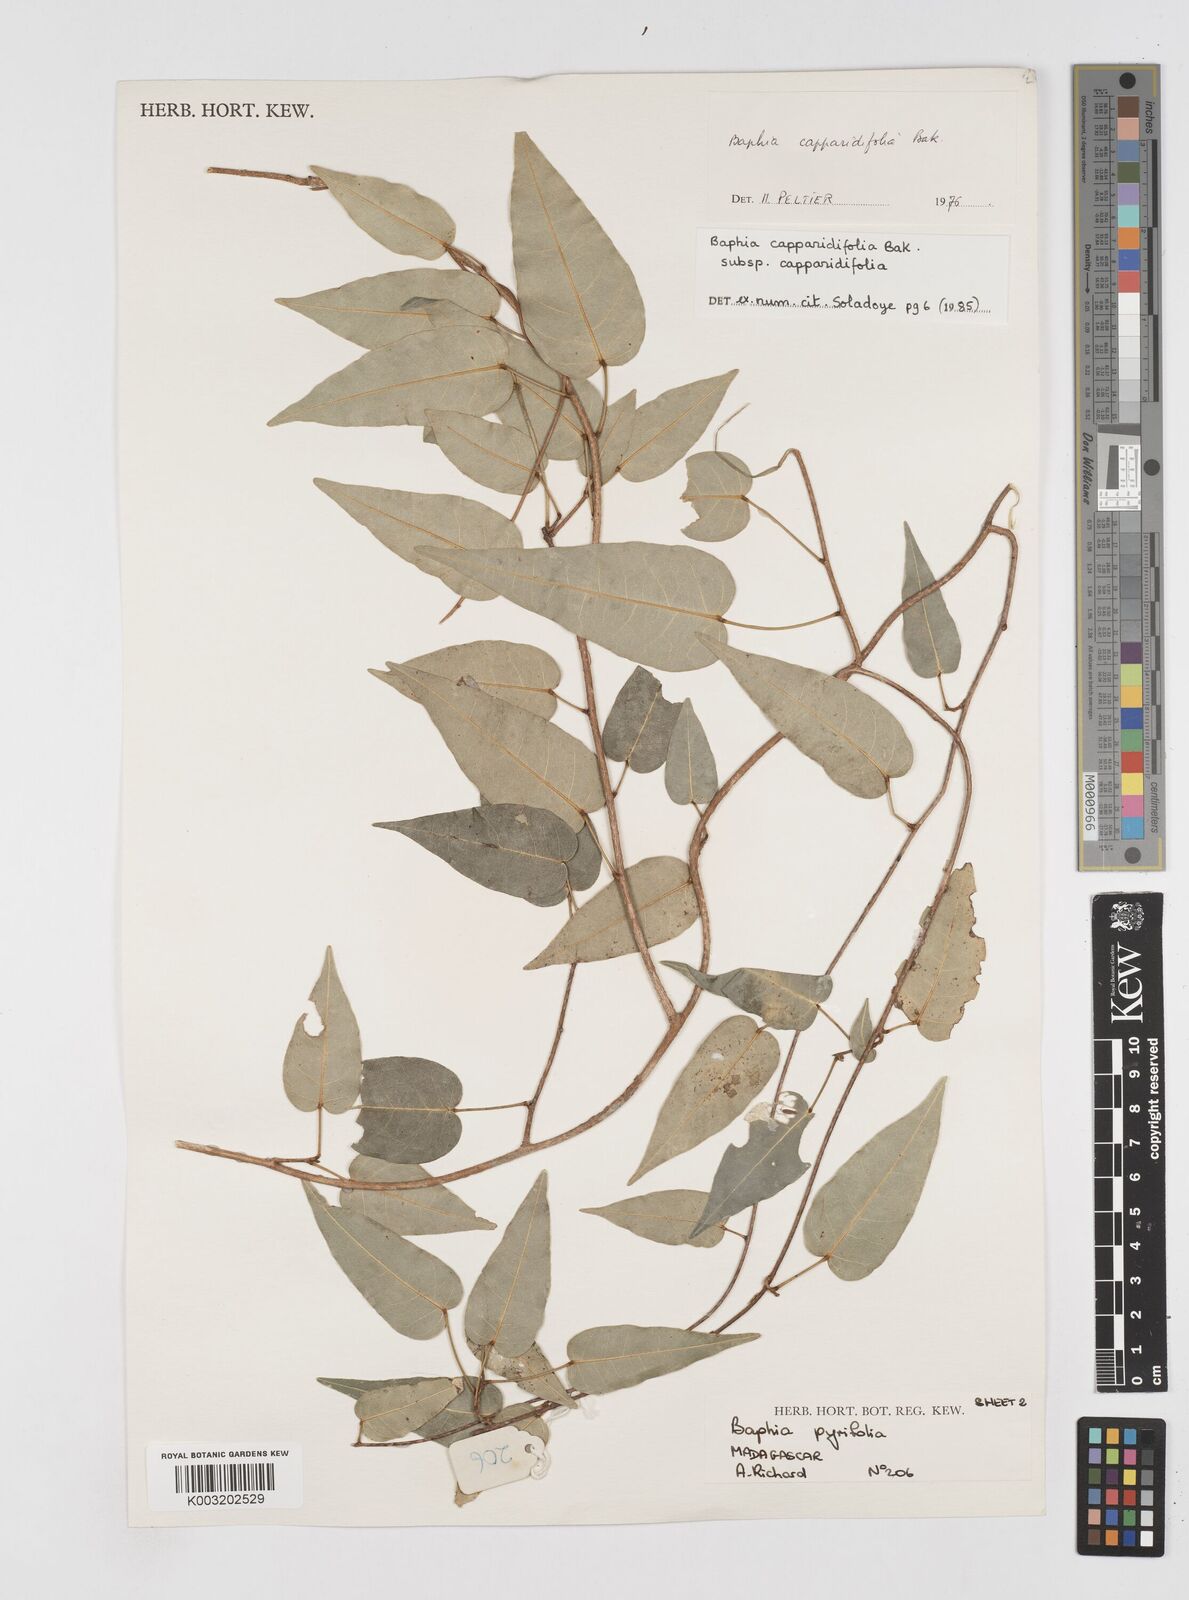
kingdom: Plantae
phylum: Tracheophyta
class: Magnoliopsida
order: Fabales
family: Fabaceae
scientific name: Fabaceae
